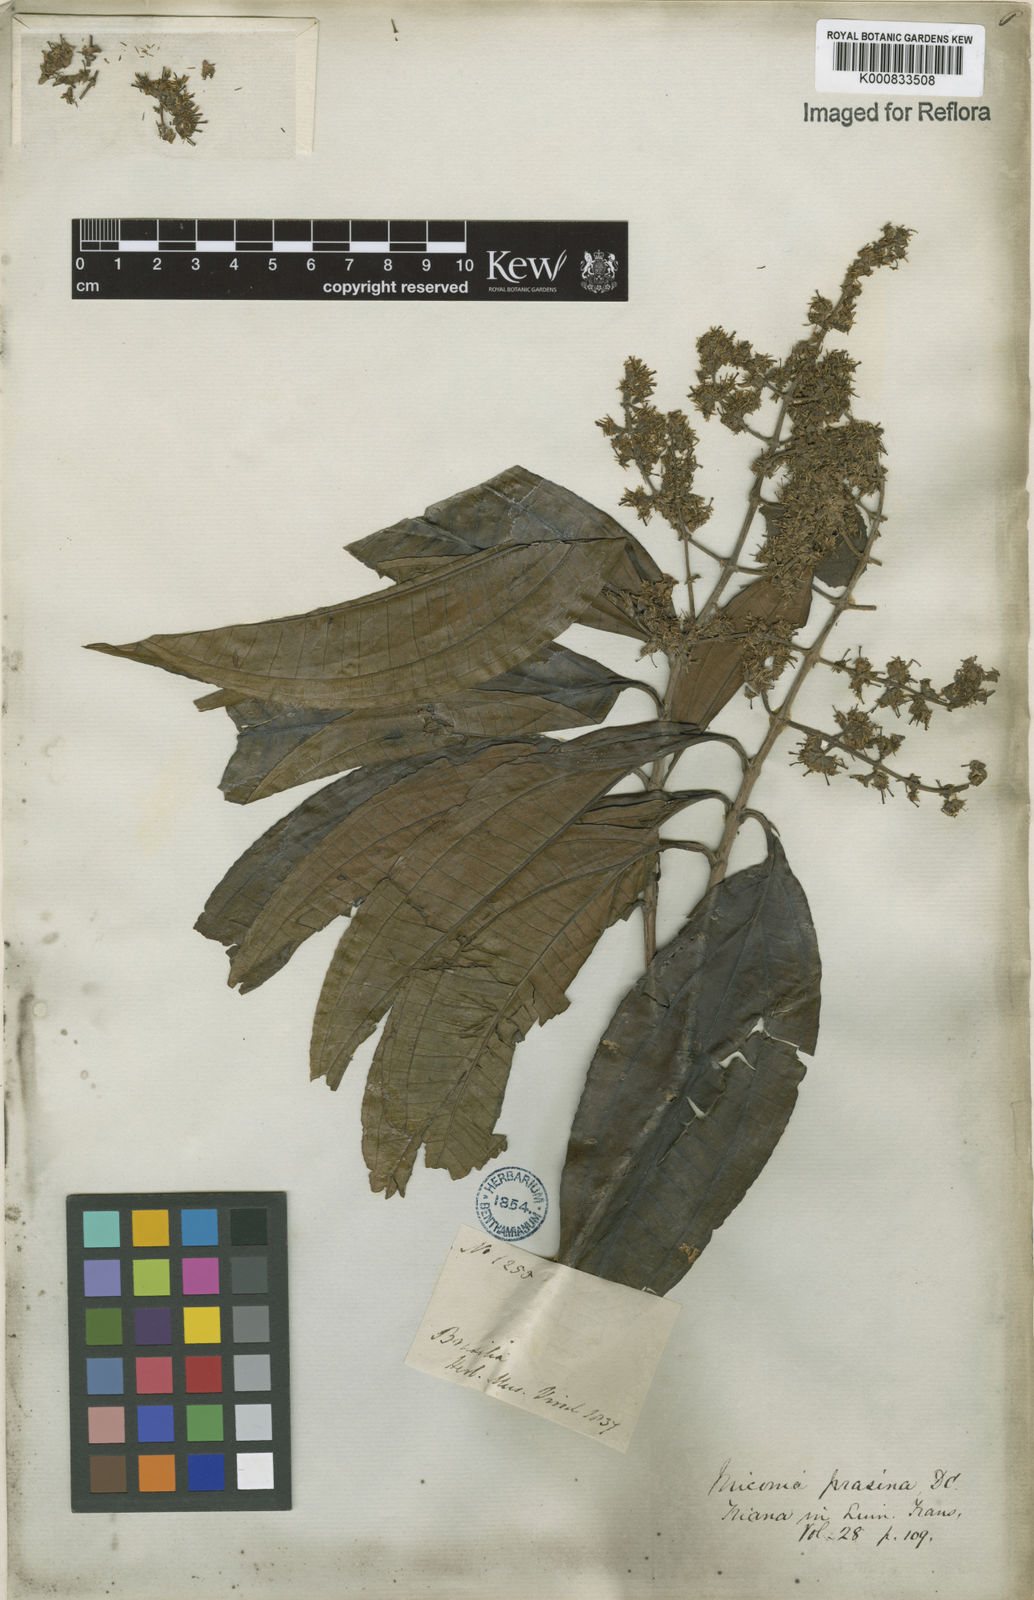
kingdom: Plantae
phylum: Tracheophyta
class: Magnoliopsida
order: Myrtales
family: Melastomataceae
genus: Miconia
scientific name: Miconia prasina
